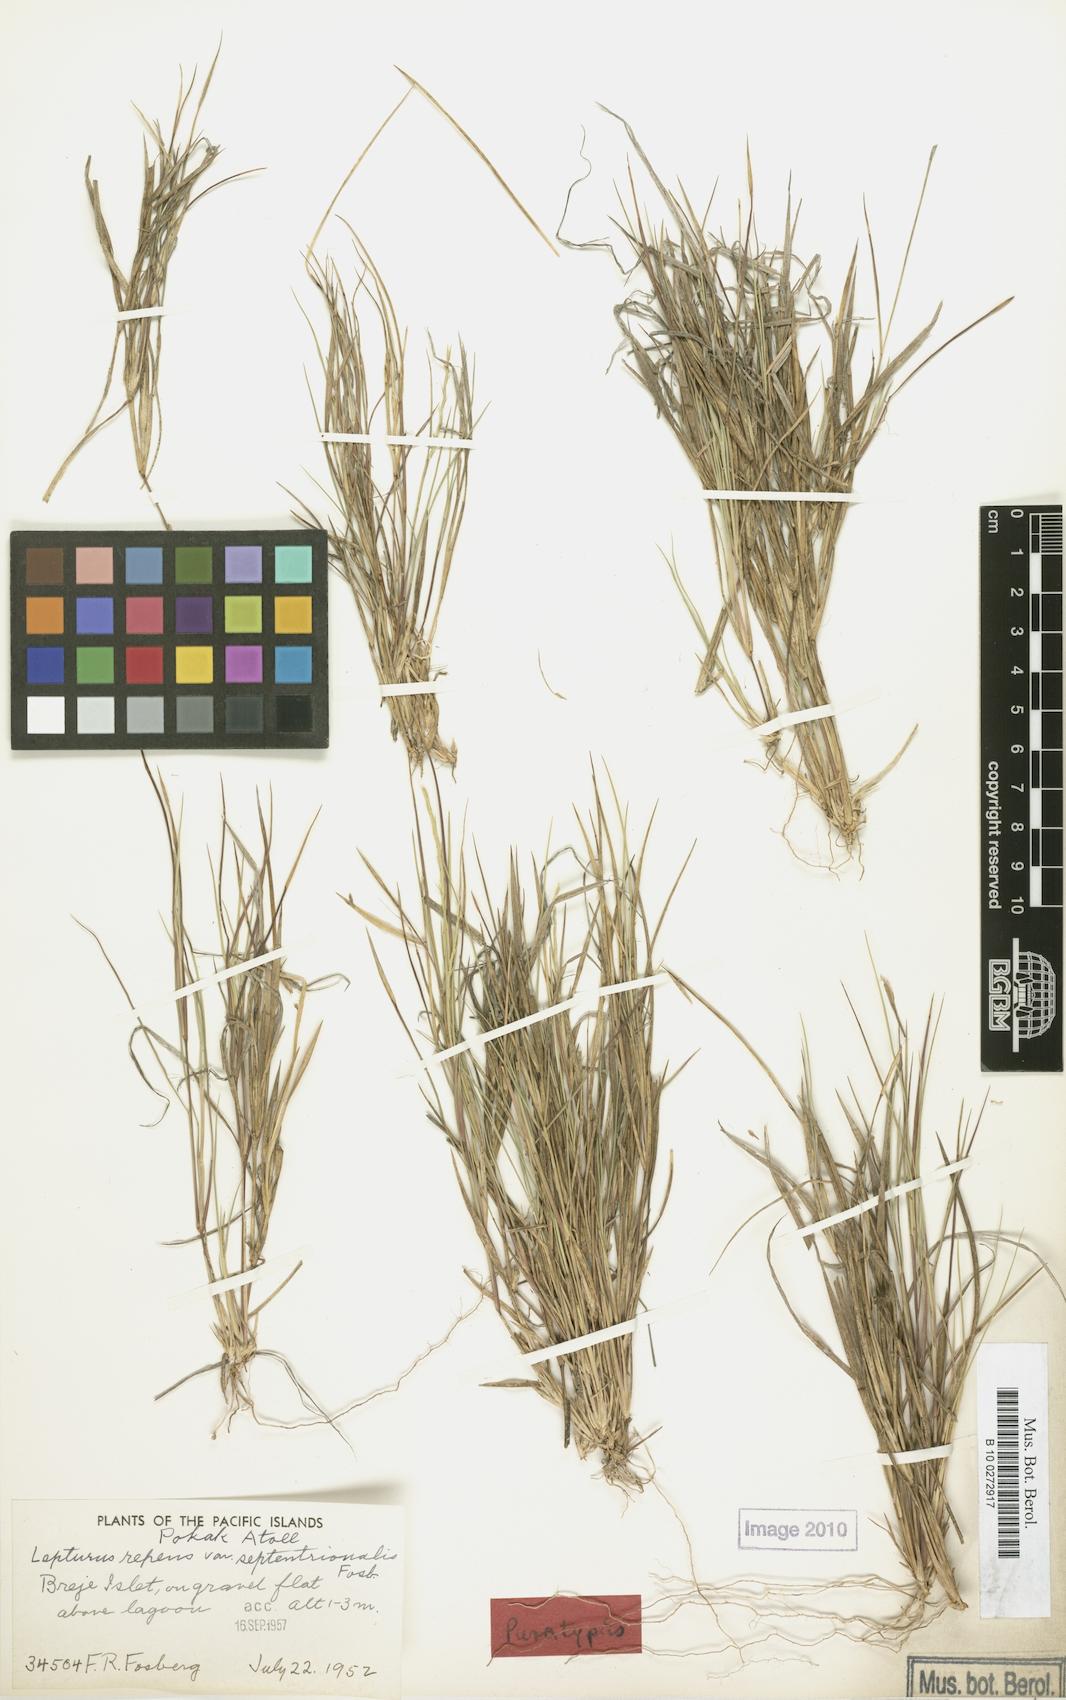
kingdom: Plantae
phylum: Tracheophyta
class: Liliopsida
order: Poales
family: Poaceae
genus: Lepturus
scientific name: Lepturus repens
